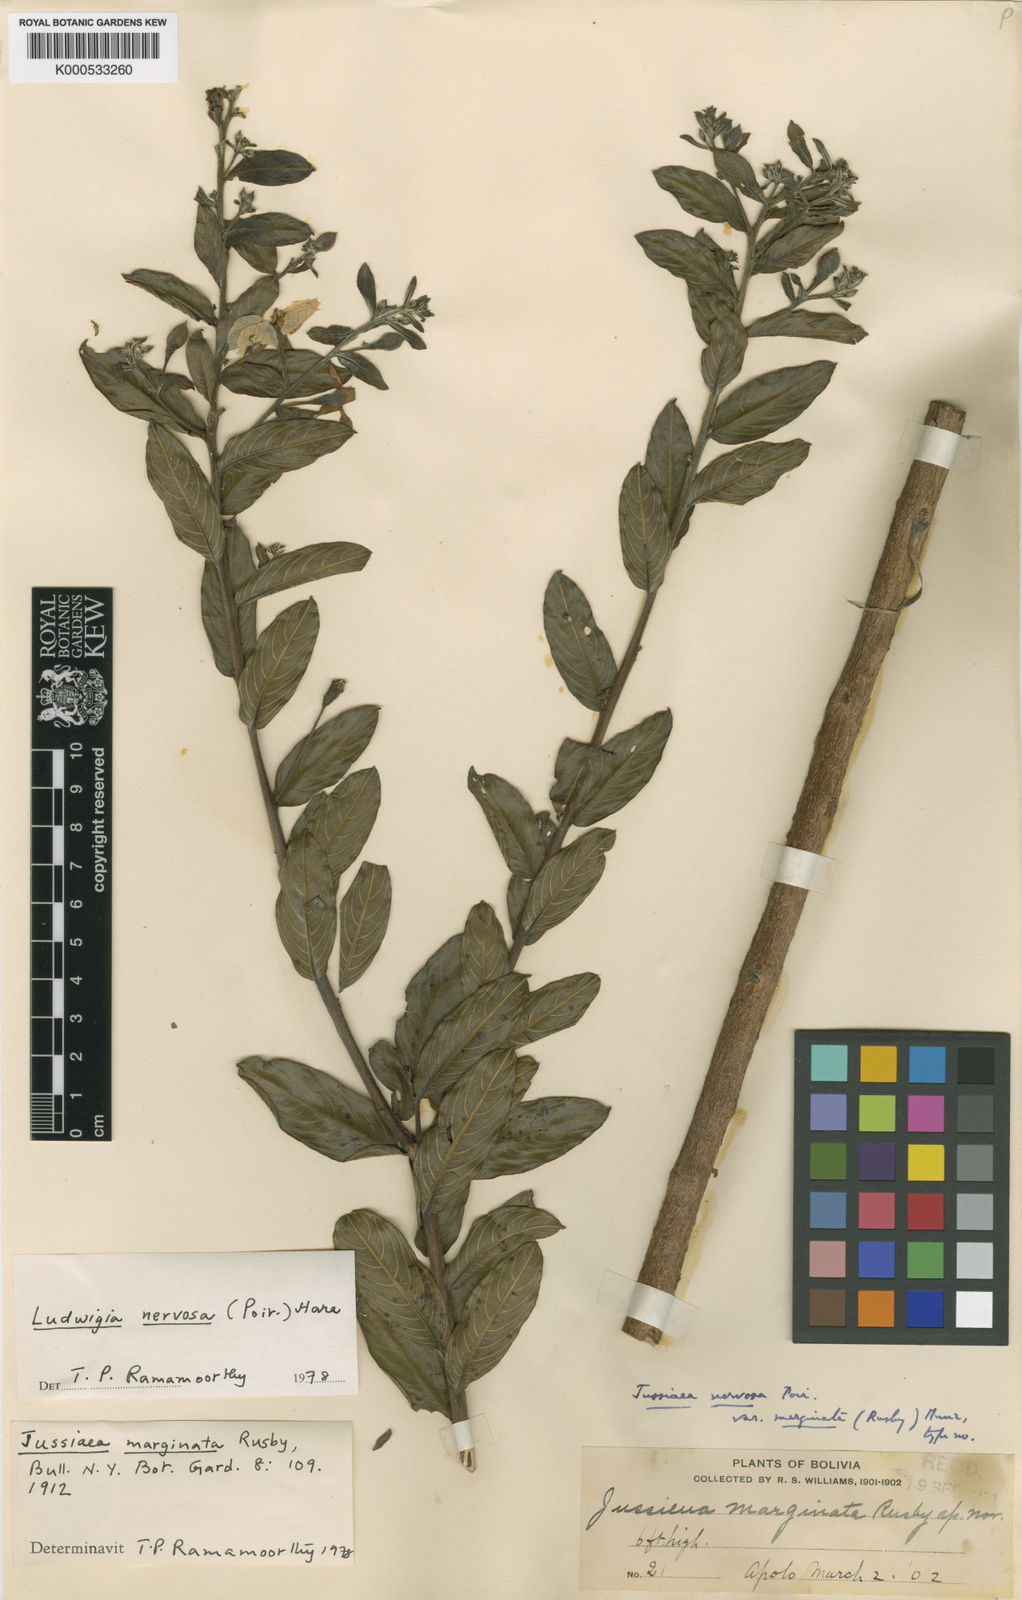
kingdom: Plantae
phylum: Tracheophyta
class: Magnoliopsida
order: Myrtales
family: Onagraceae
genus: Ludwigia
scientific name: Ludwigia nervosa
